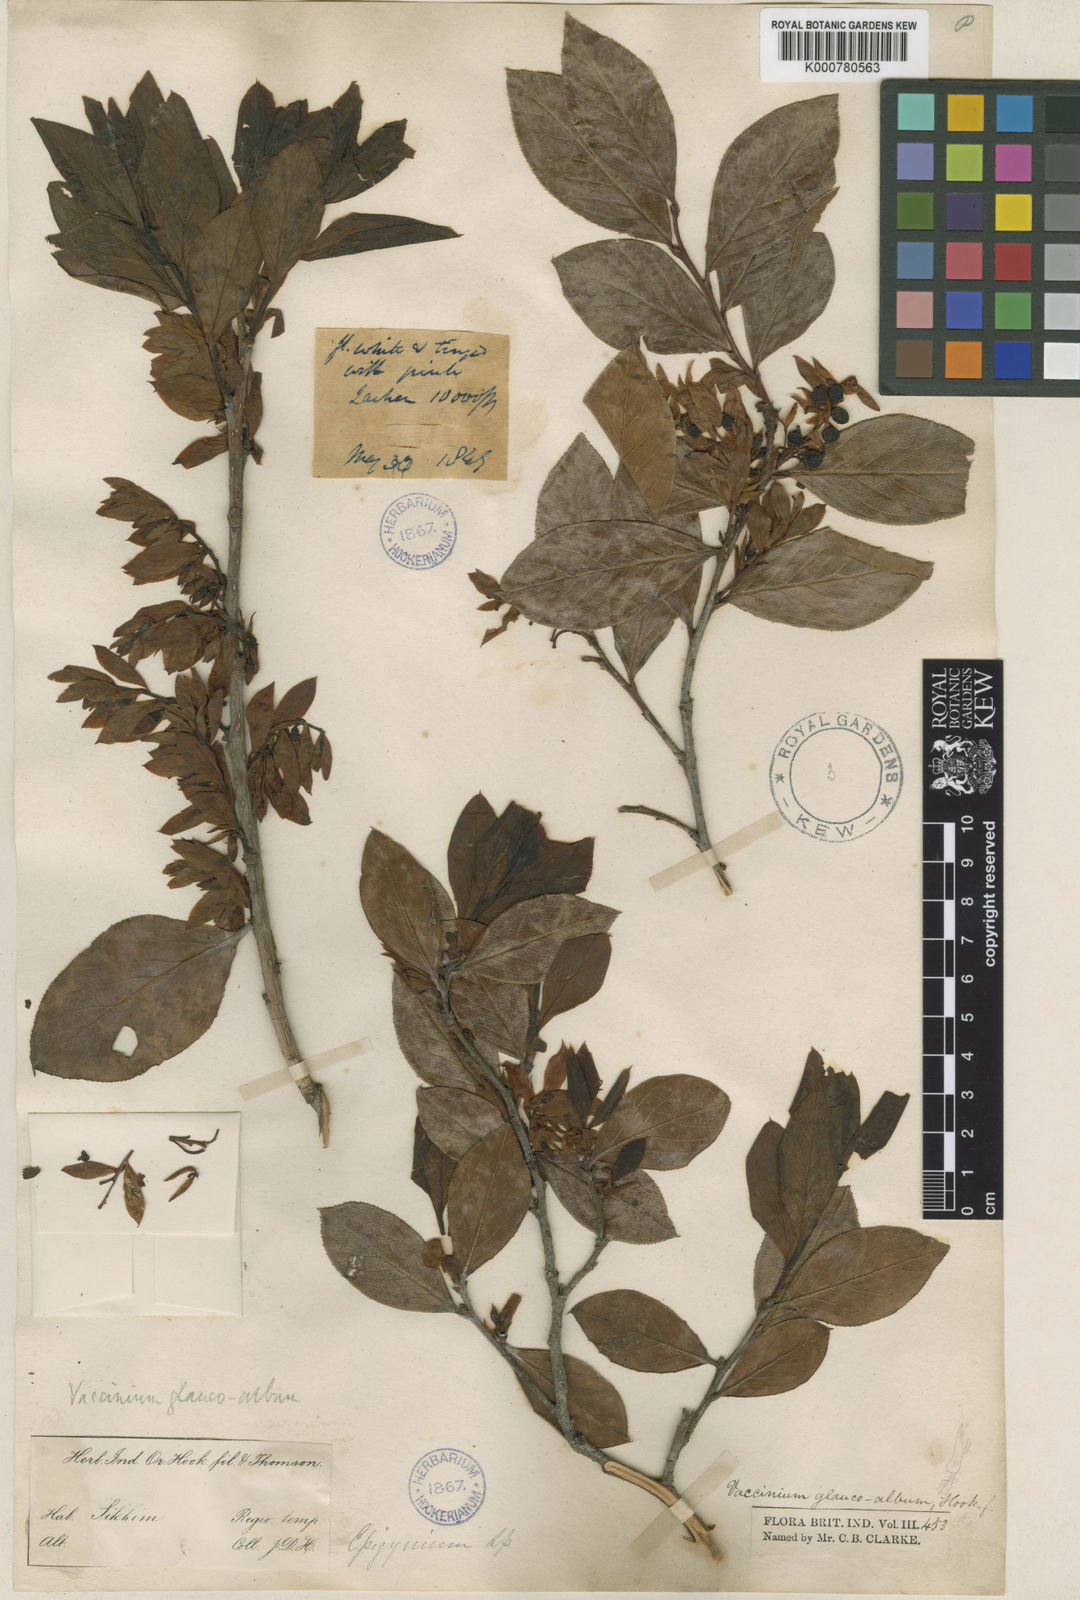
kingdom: Plantae
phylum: Tracheophyta
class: Magnoliopsida
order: Ericales
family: Ericaceae
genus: Vaccinium
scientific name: Vaccinium glaucoalbum
